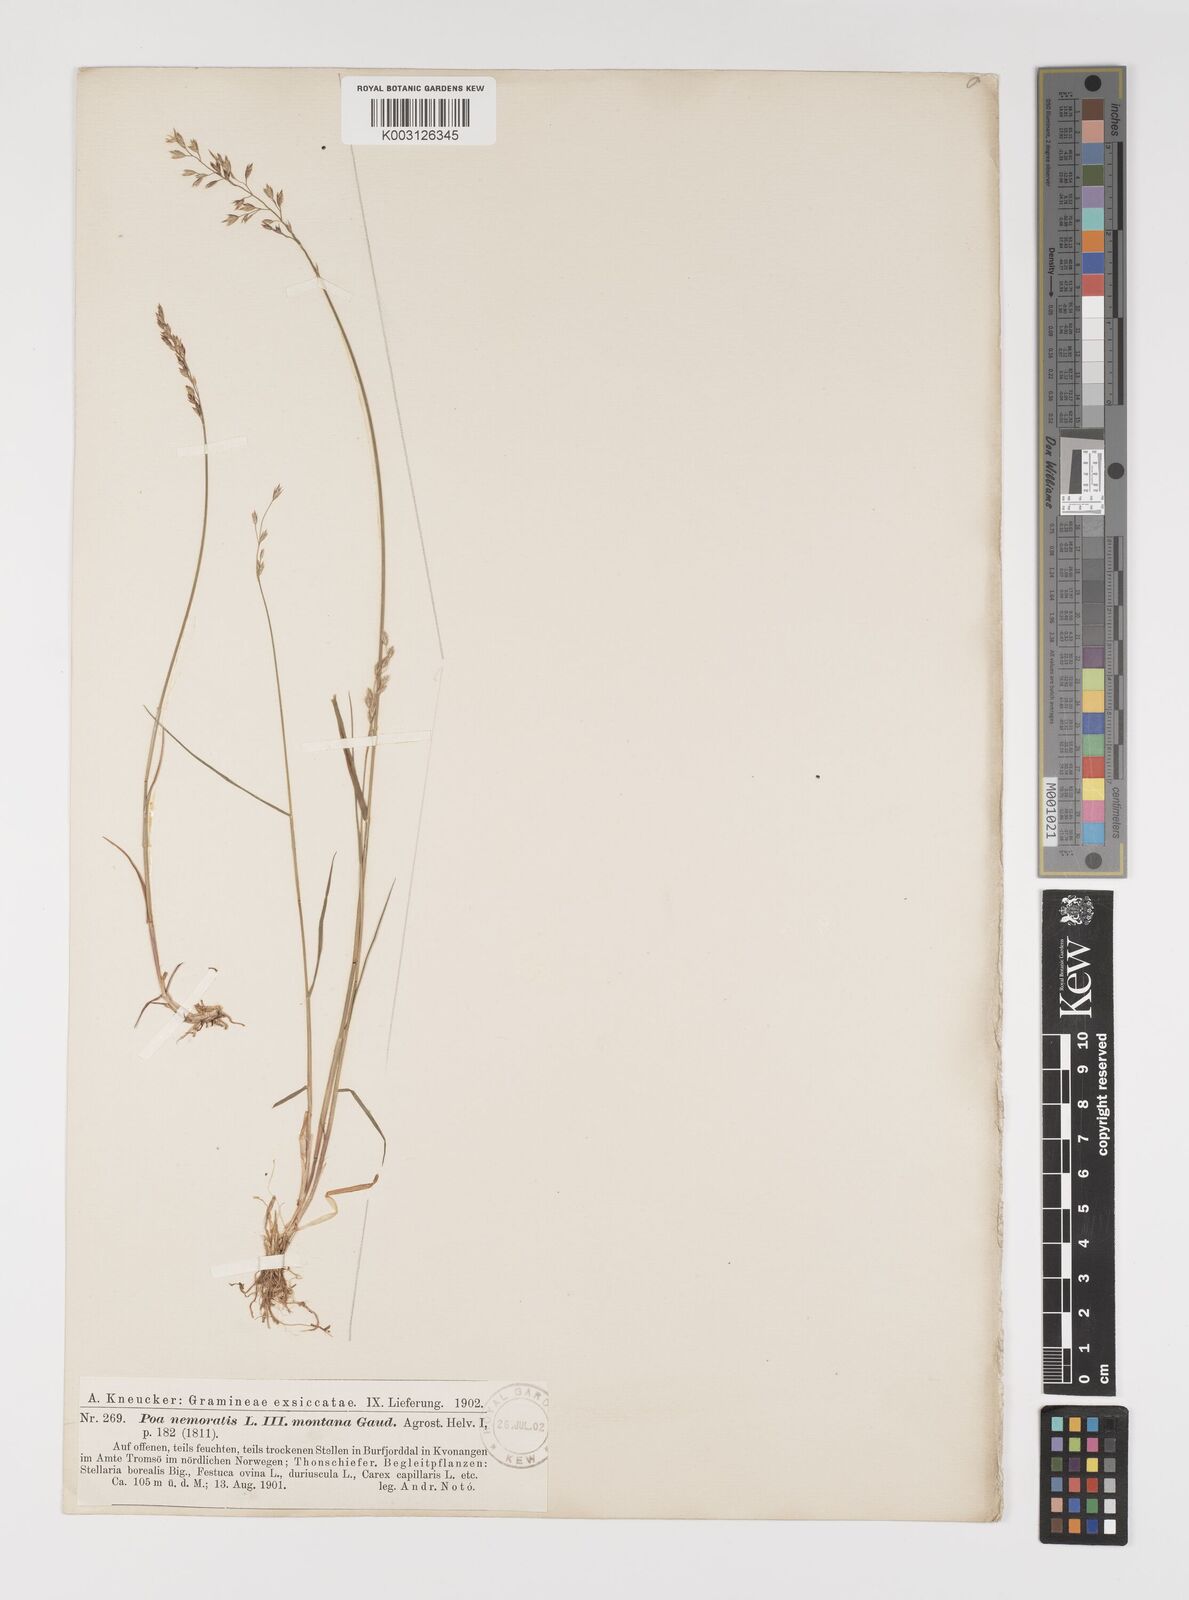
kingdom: Plantae
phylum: Tracheophyta
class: Liliopsida
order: Poales
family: Poaceae
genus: Poa
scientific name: Poa glauca
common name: Glaucous bluegrass
